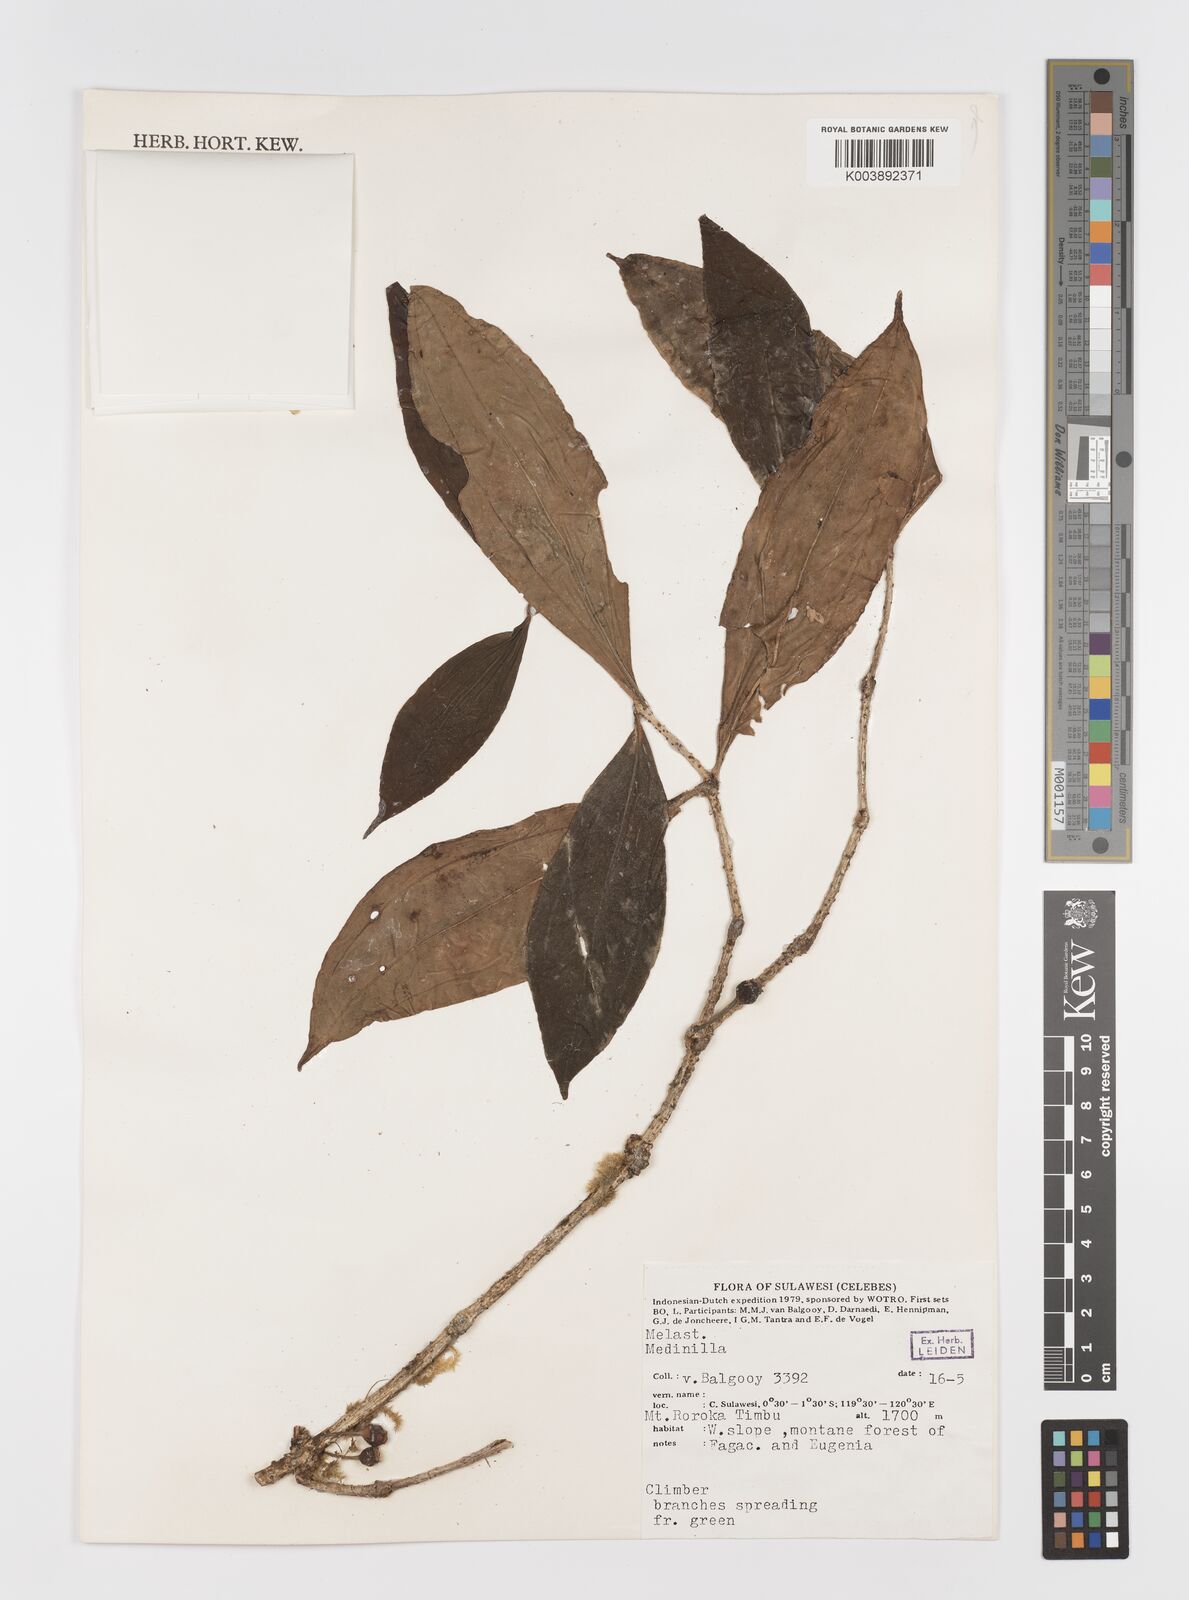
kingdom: Plantae
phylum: Tracheophyta
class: Magnoliopsida
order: Myrtales
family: Melastomataceae
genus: Medinilla
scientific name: Medinilla
